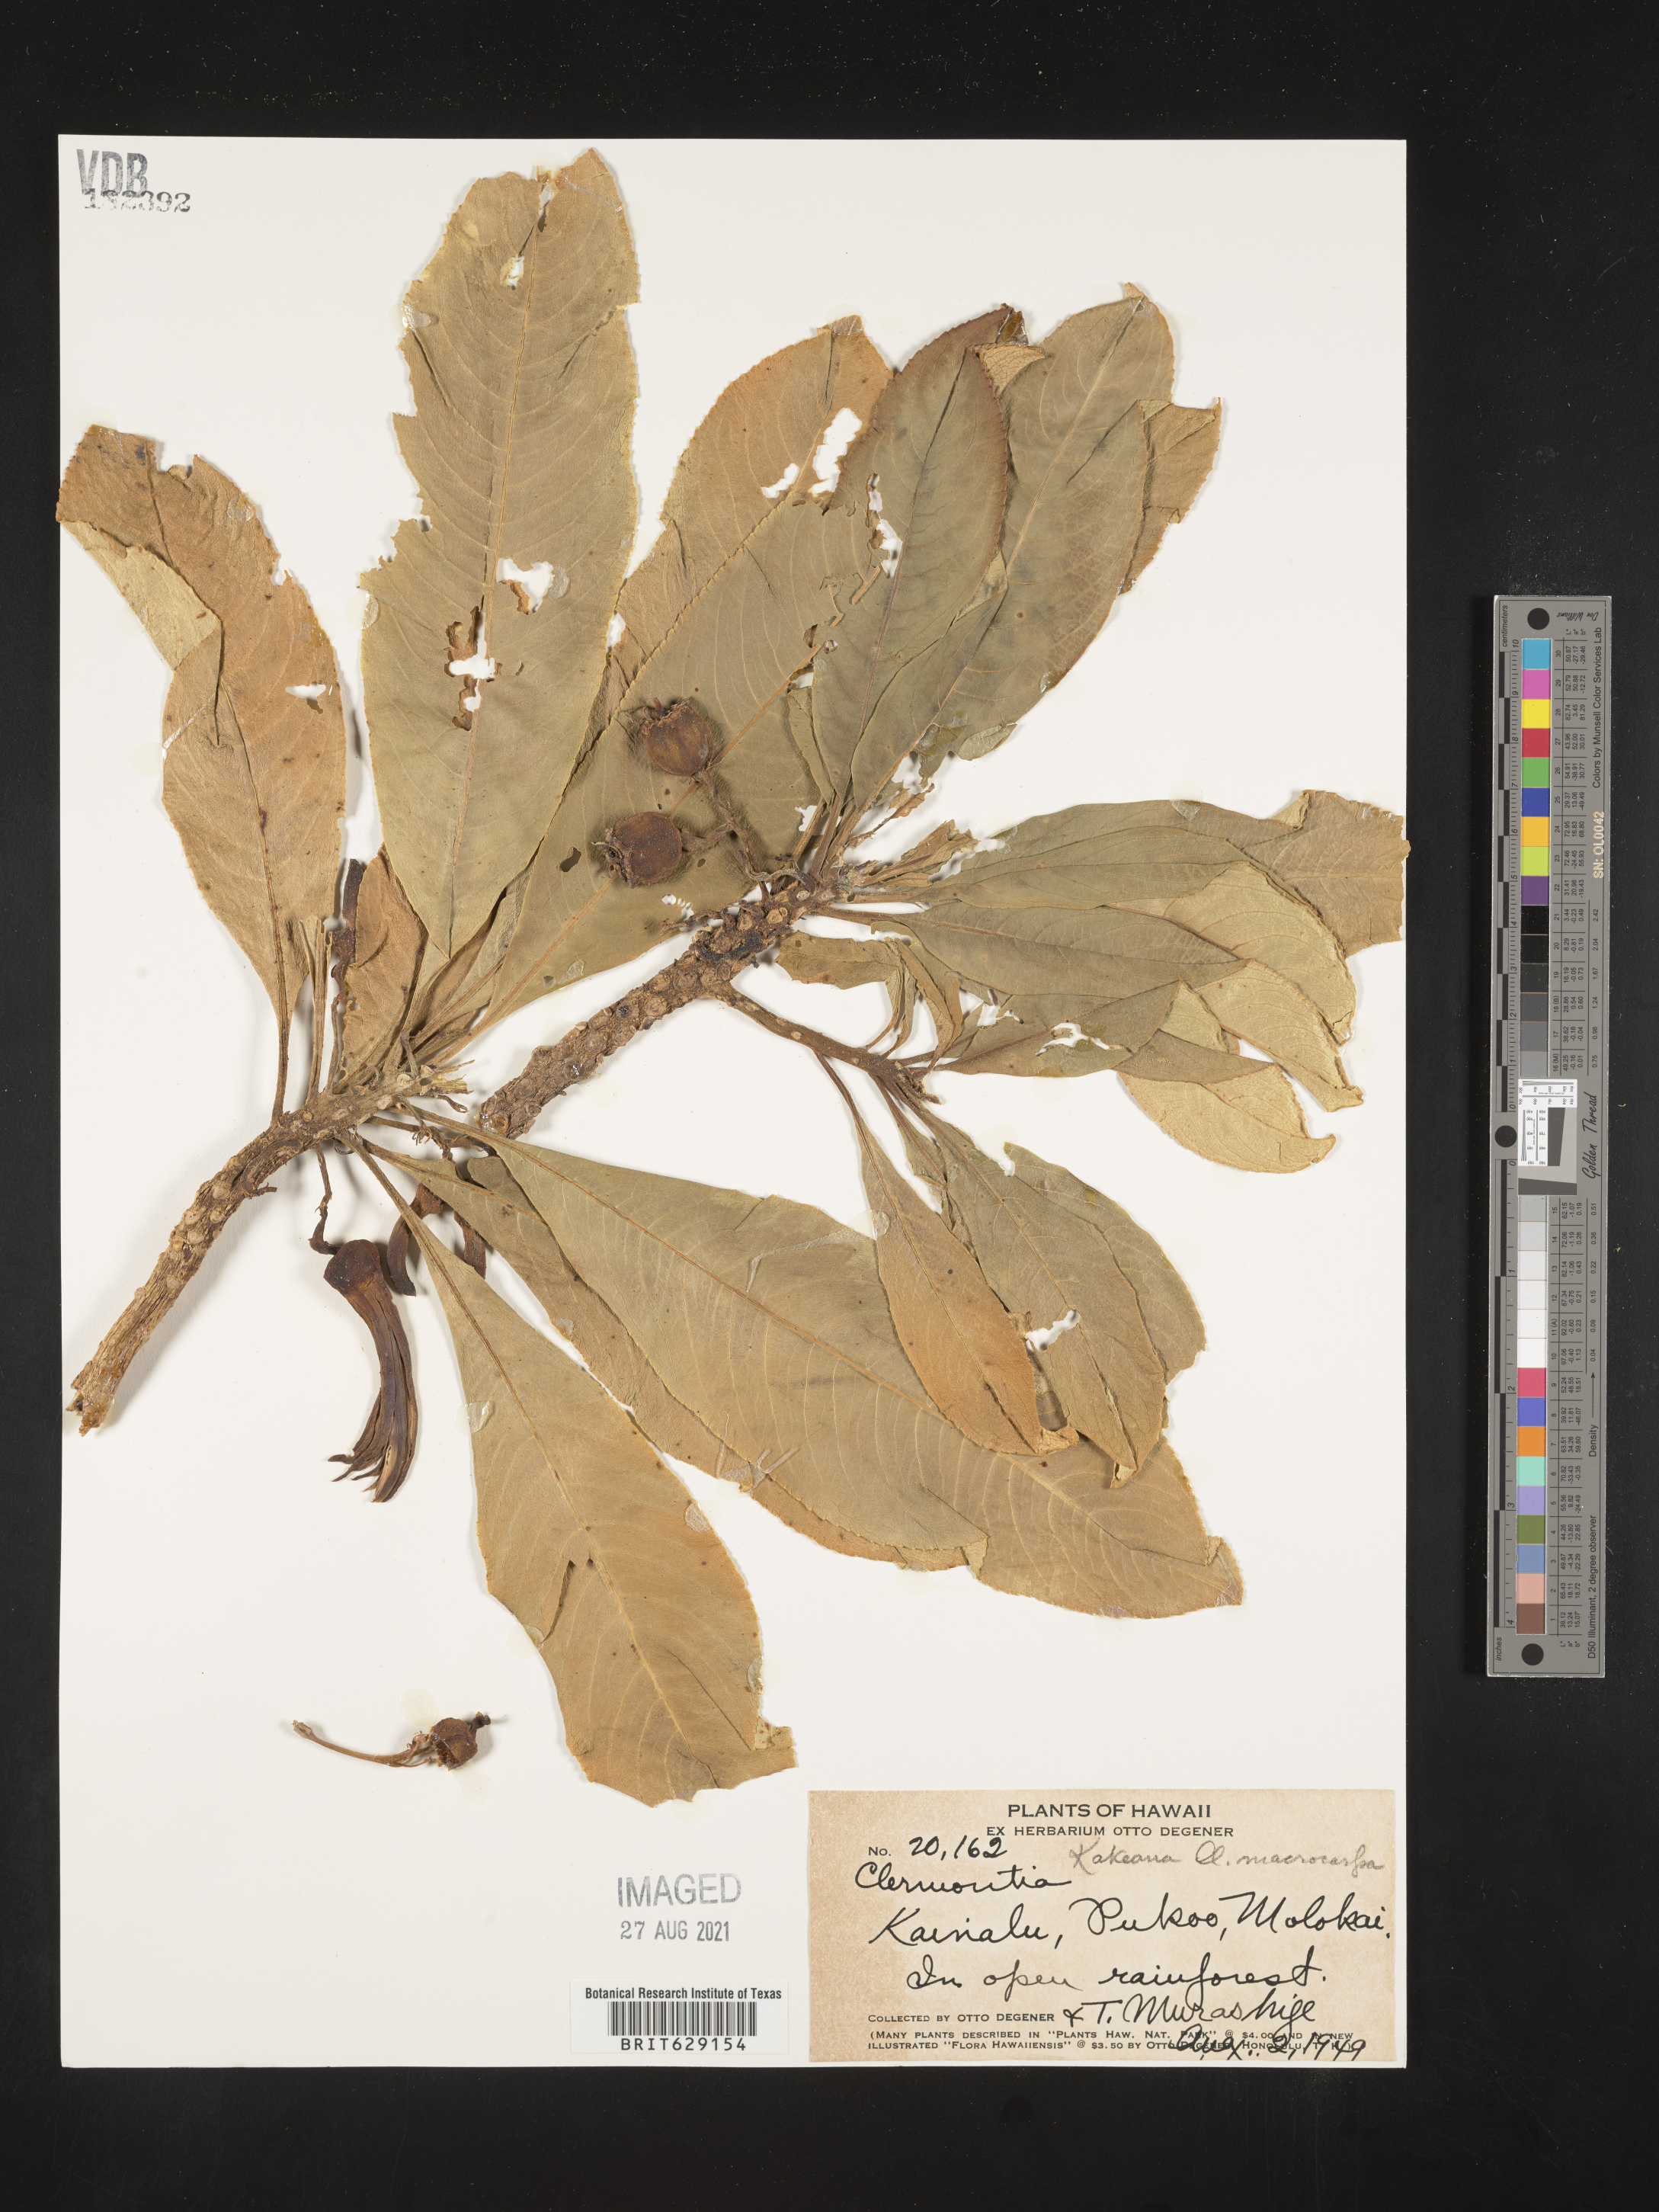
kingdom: Plantae
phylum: Tracheophyta
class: Magnoliopsida
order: Asterales
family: Campanulaceae
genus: Clermontia
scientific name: Clermontia kakeana
